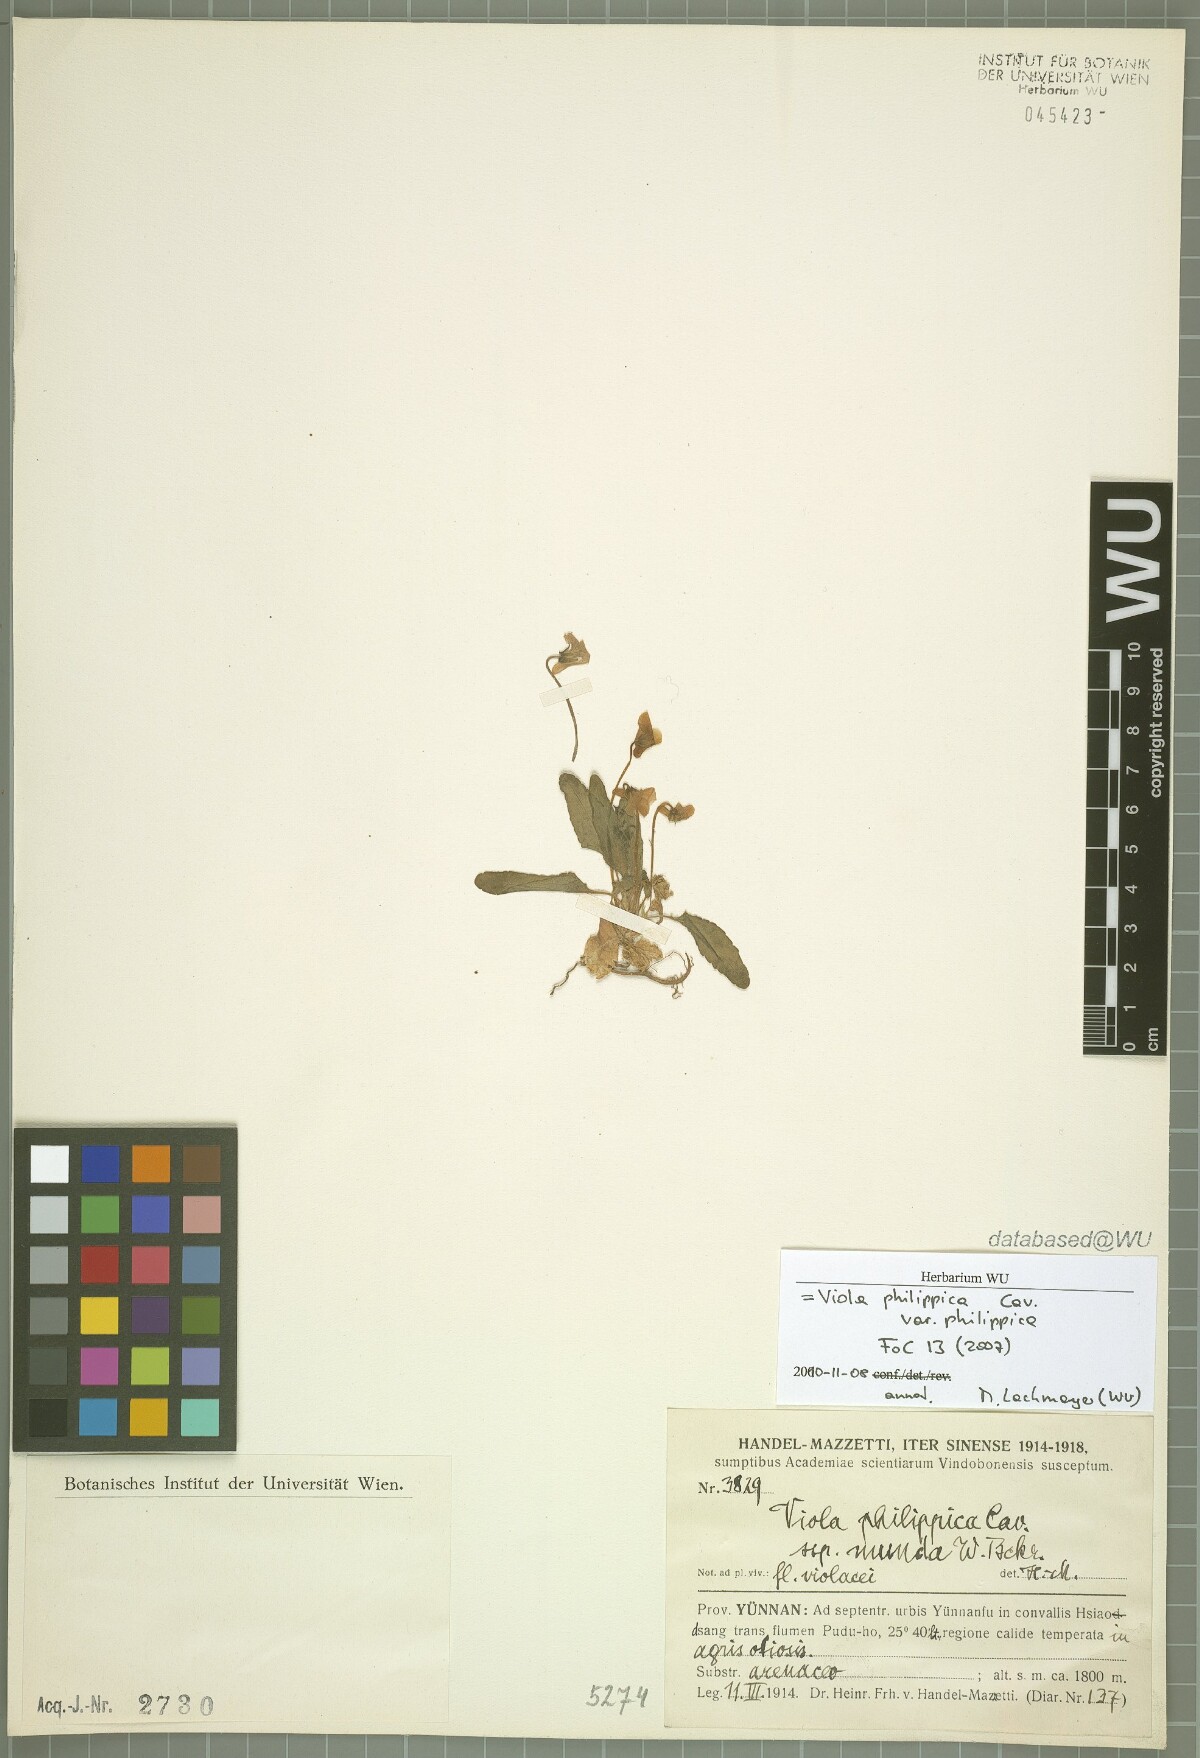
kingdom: Plantae
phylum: Tracheophyta
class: Magnoliopsida
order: Malpighiales
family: Violaceae
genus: Viola
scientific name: Viola philippica
